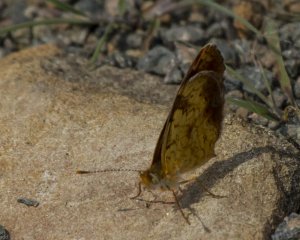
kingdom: Animalia
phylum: Arthropoda
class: Insecta
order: Lepidoptera
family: Nymphalidae
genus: Phyciodes
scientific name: Phyciodes tharos
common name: Northern Crescent
